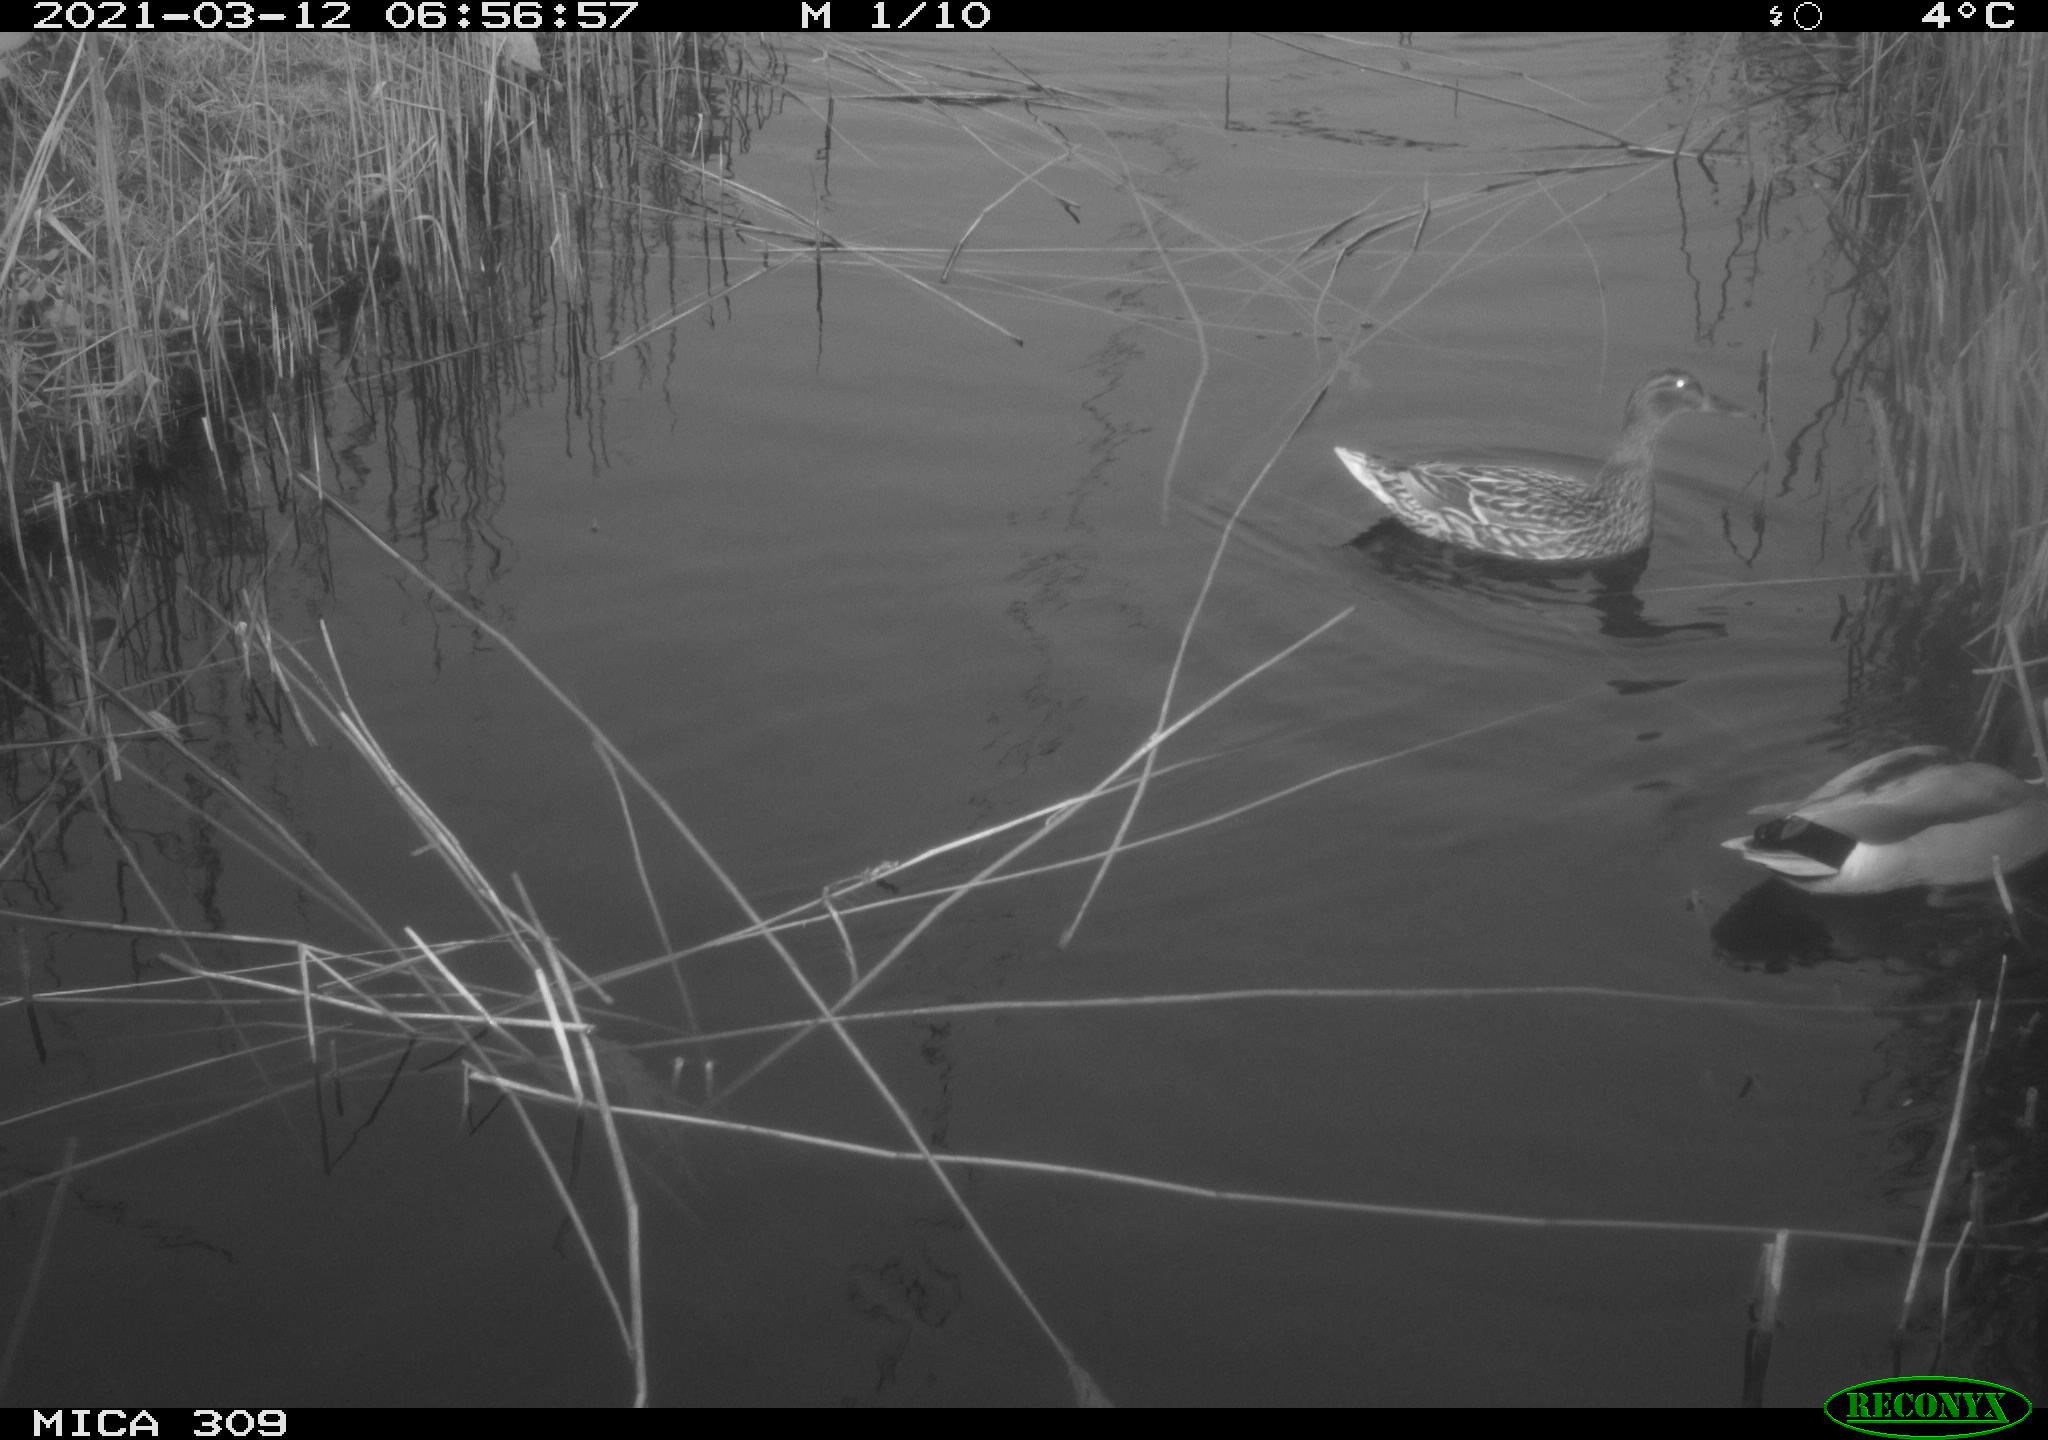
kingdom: Animalia
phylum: Chordata
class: Aves
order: Anseriformes
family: Anatidae
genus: Anas
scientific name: Anas platyrhynchos
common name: Mallard
